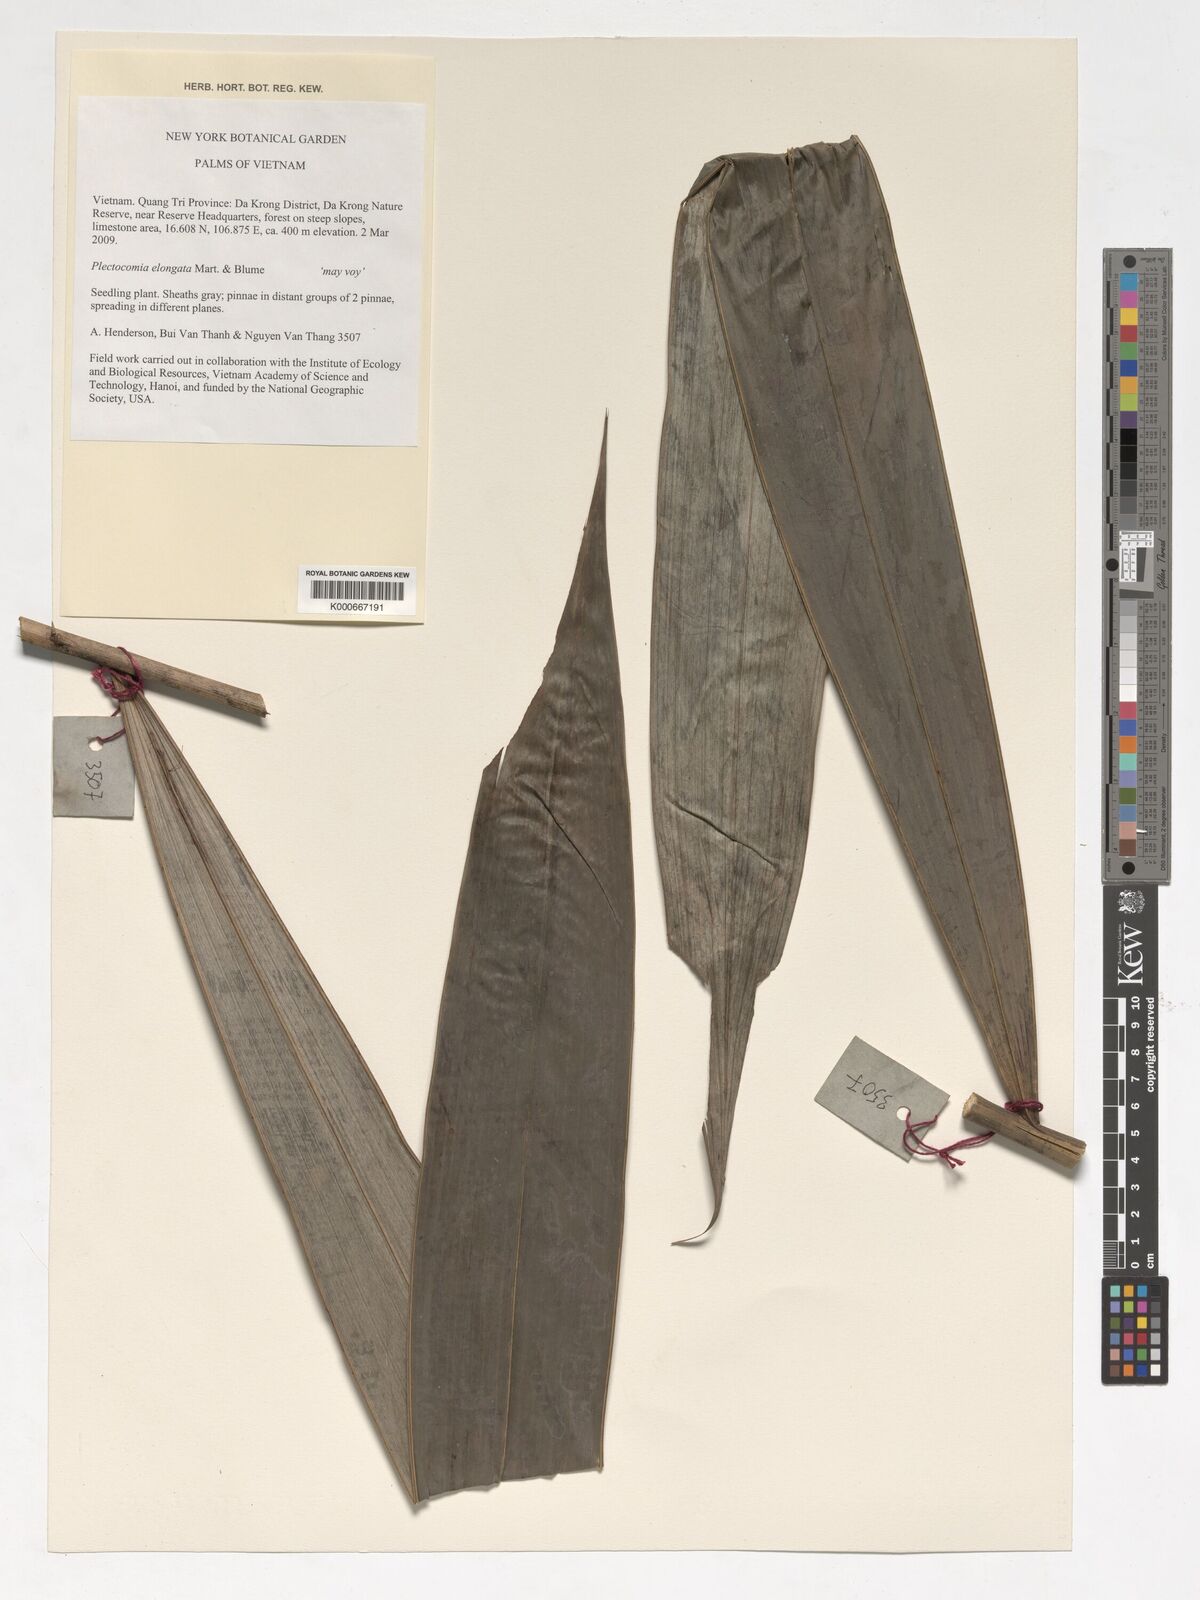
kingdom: Plantae
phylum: Tracheophyta
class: Liliopsida
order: Arecales
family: Arecaceae
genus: Plectocomia
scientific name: Plectocomia elongata
